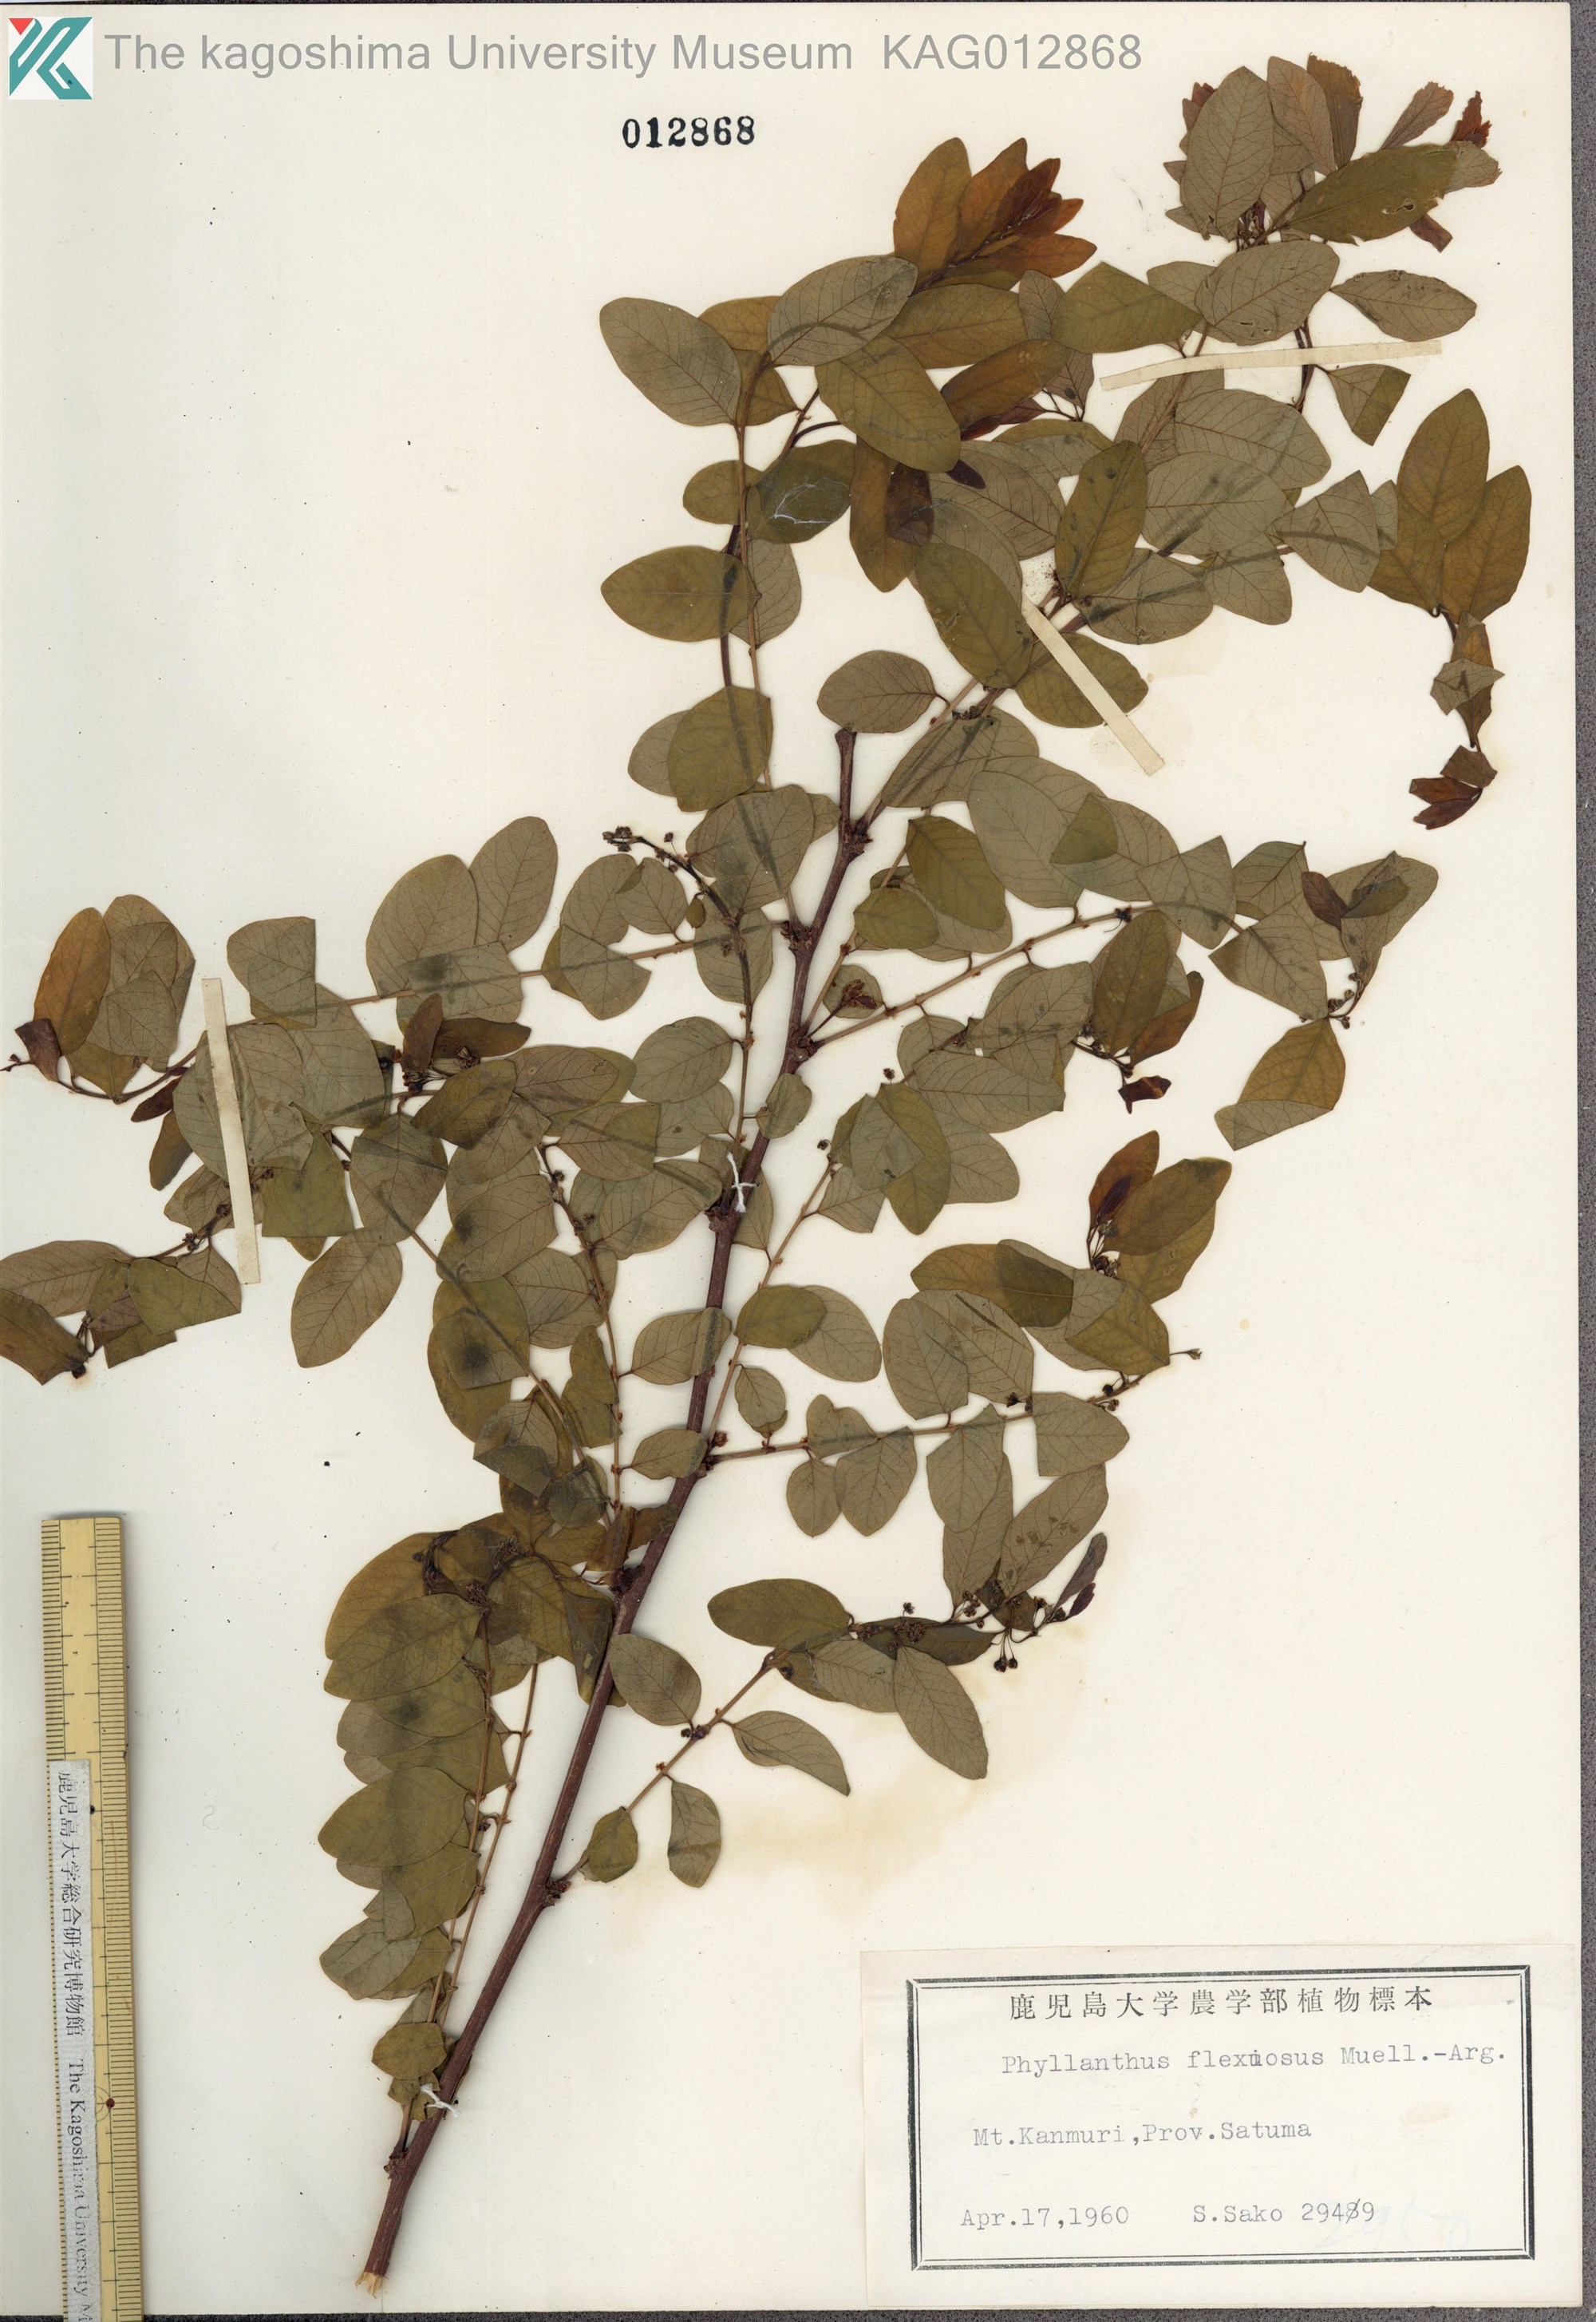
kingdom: Plantae
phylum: Tracheophyta
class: Magnoliopsida
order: Malpighiales
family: Phyllanthaceae
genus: Phyllanthus
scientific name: Phyllanthus flexuosus
